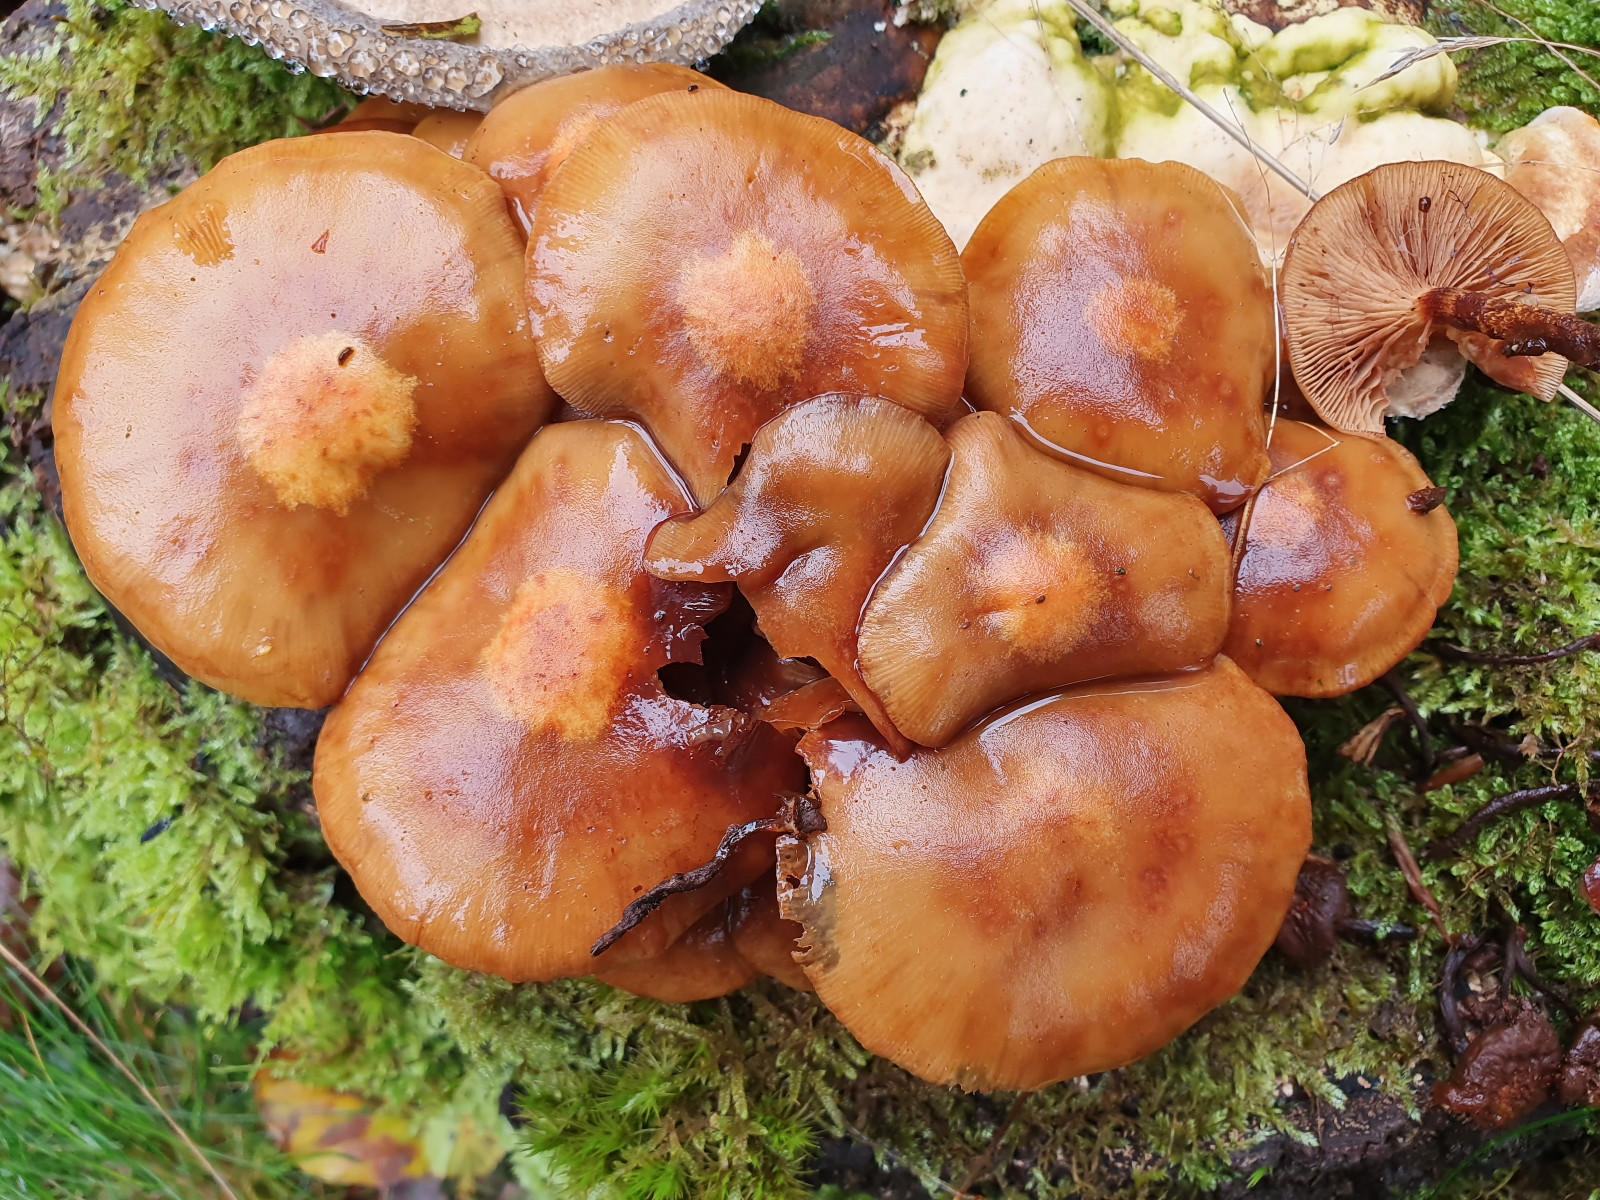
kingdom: Fungi
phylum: Basidiomycota
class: Agaricomycetes
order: Agaricales
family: Strophariaceae
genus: Kuehneromyces
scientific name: Kuehneromyces mutabilis
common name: foranderlig skælhat
